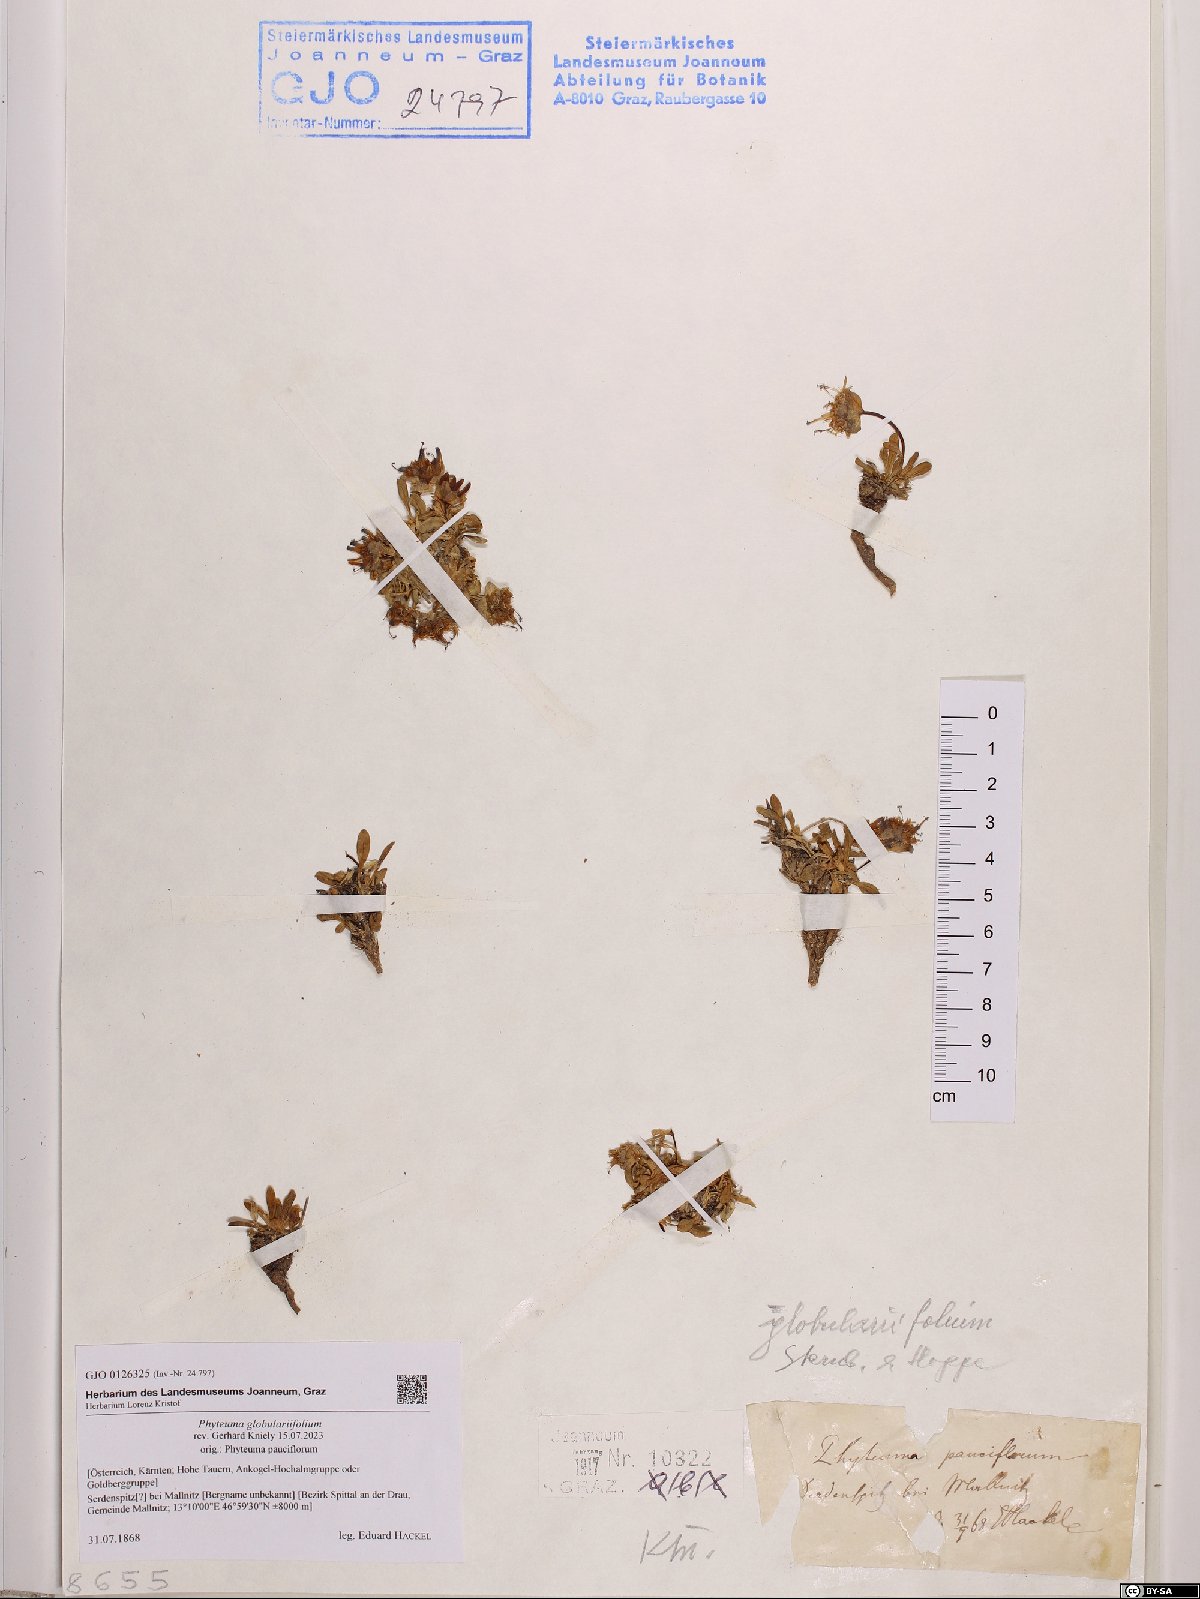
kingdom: Plantae
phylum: Tracheophyta
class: Magnoliopsida
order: Asterales
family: Campanulaceae
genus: Phyteuma
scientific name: Phyteuma globulariifolium
